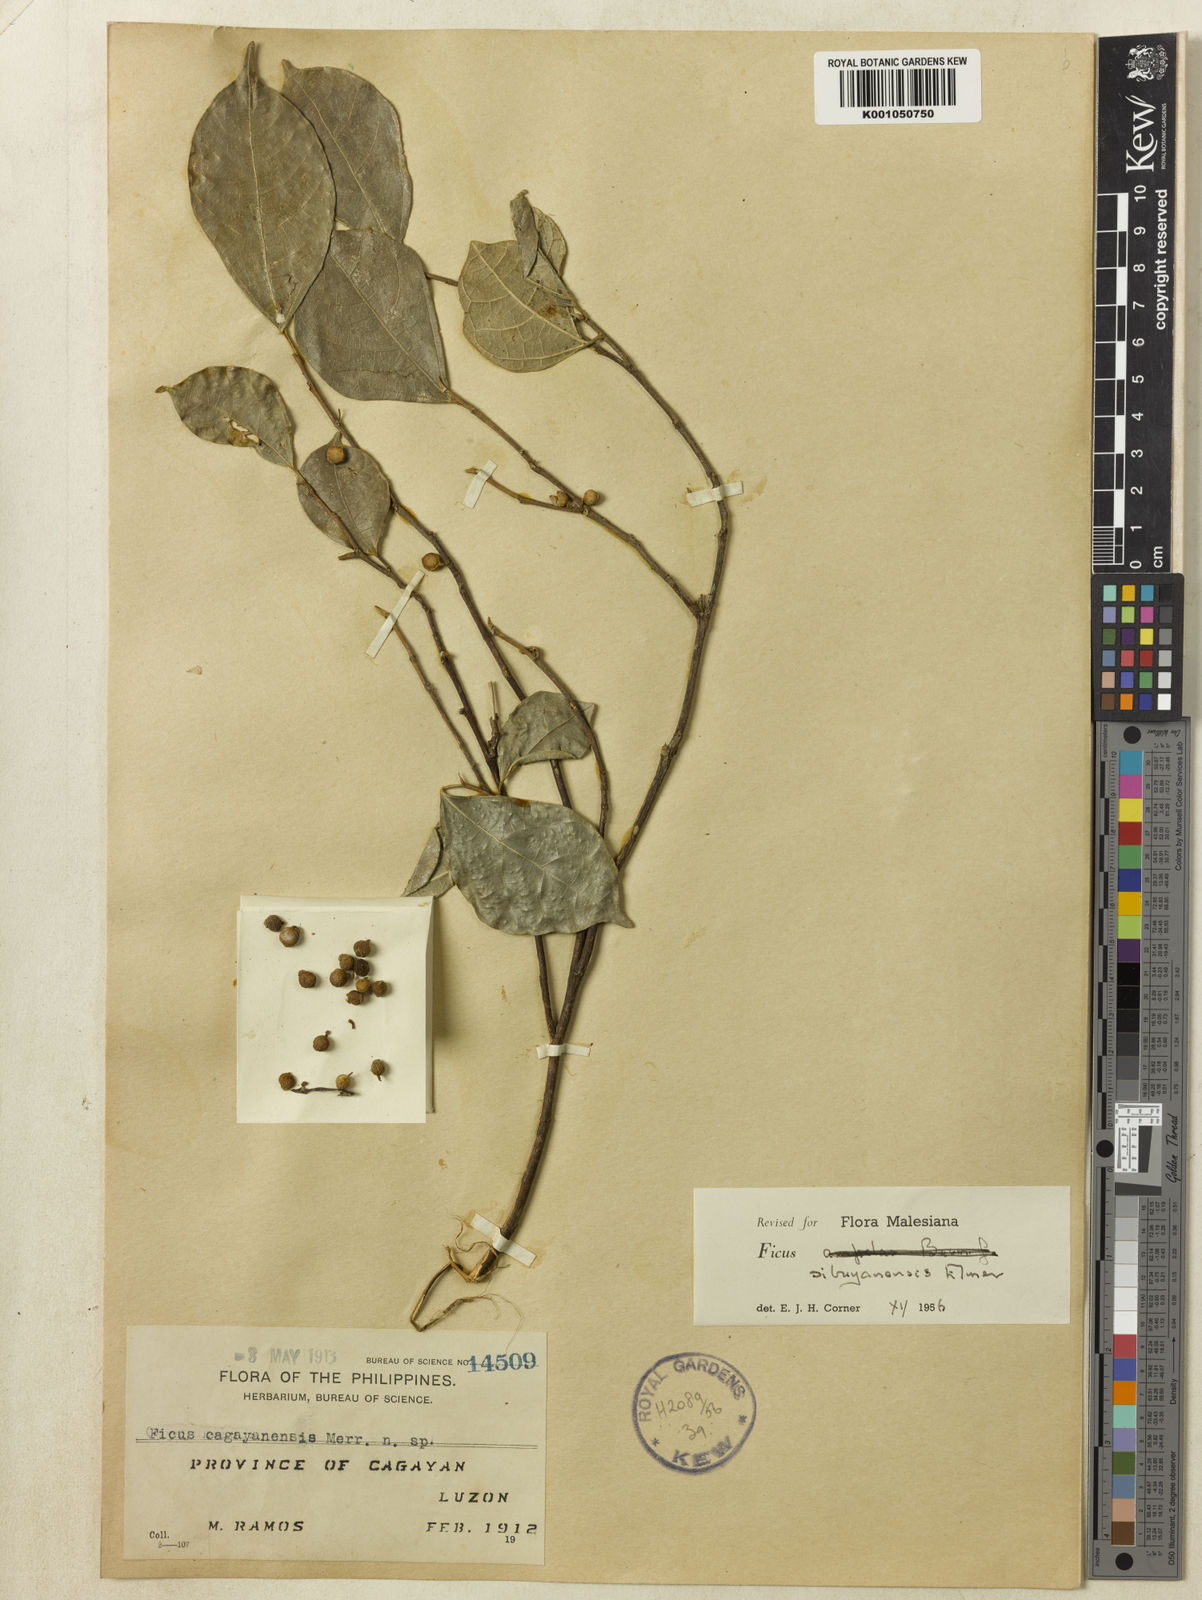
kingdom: Plantae
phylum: Tracheophyta
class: Magnoliopsida
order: Rosales
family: Moraceae
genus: Ficus
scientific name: Ficus ampelos
